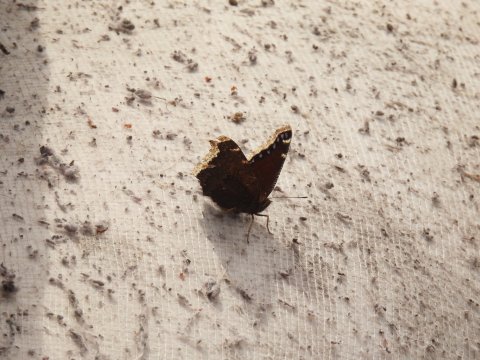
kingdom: Animalia
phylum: Arthropoda
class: Insecta
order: Lepidoptera
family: Nymphalidae
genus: Nymphalis
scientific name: Nymphalis antiopa
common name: Mourning Cloak
